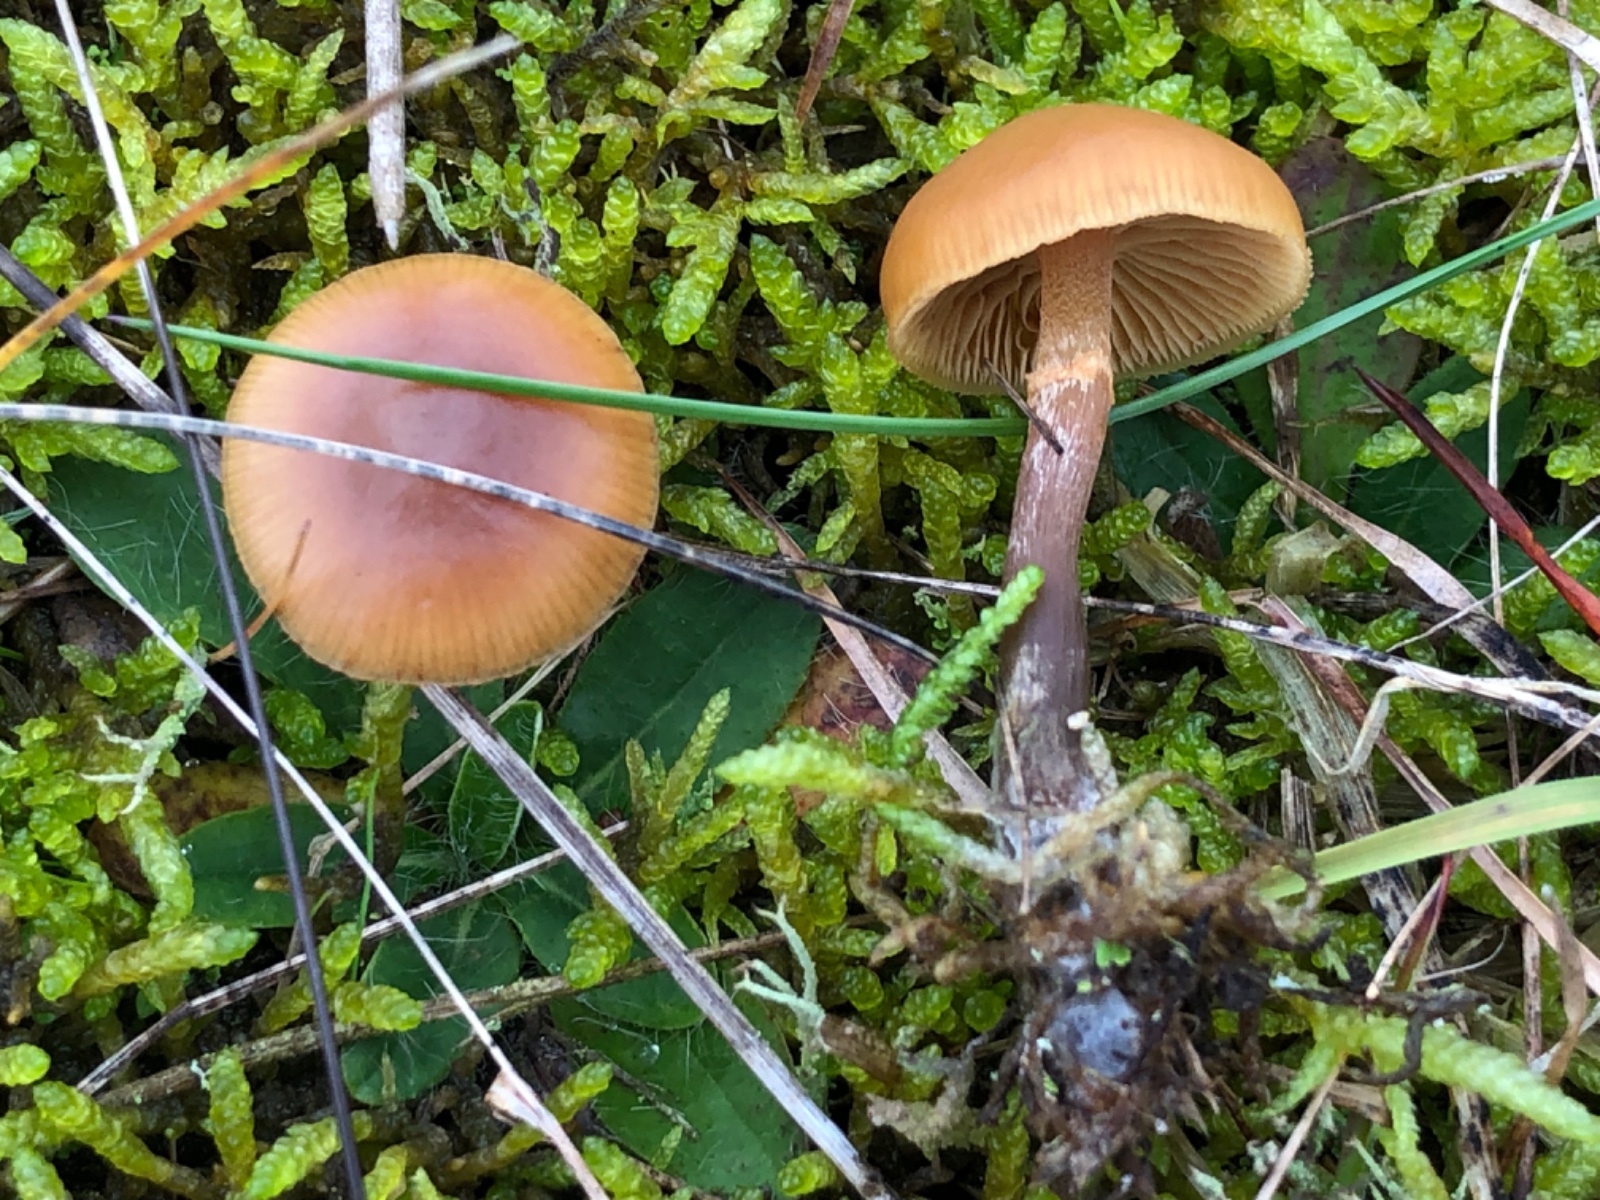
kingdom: Fungi
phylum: Basidiomycota
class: Agaricomycetes
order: Agaricales
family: Hymenogastraceae
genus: Galerina
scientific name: Galerina
